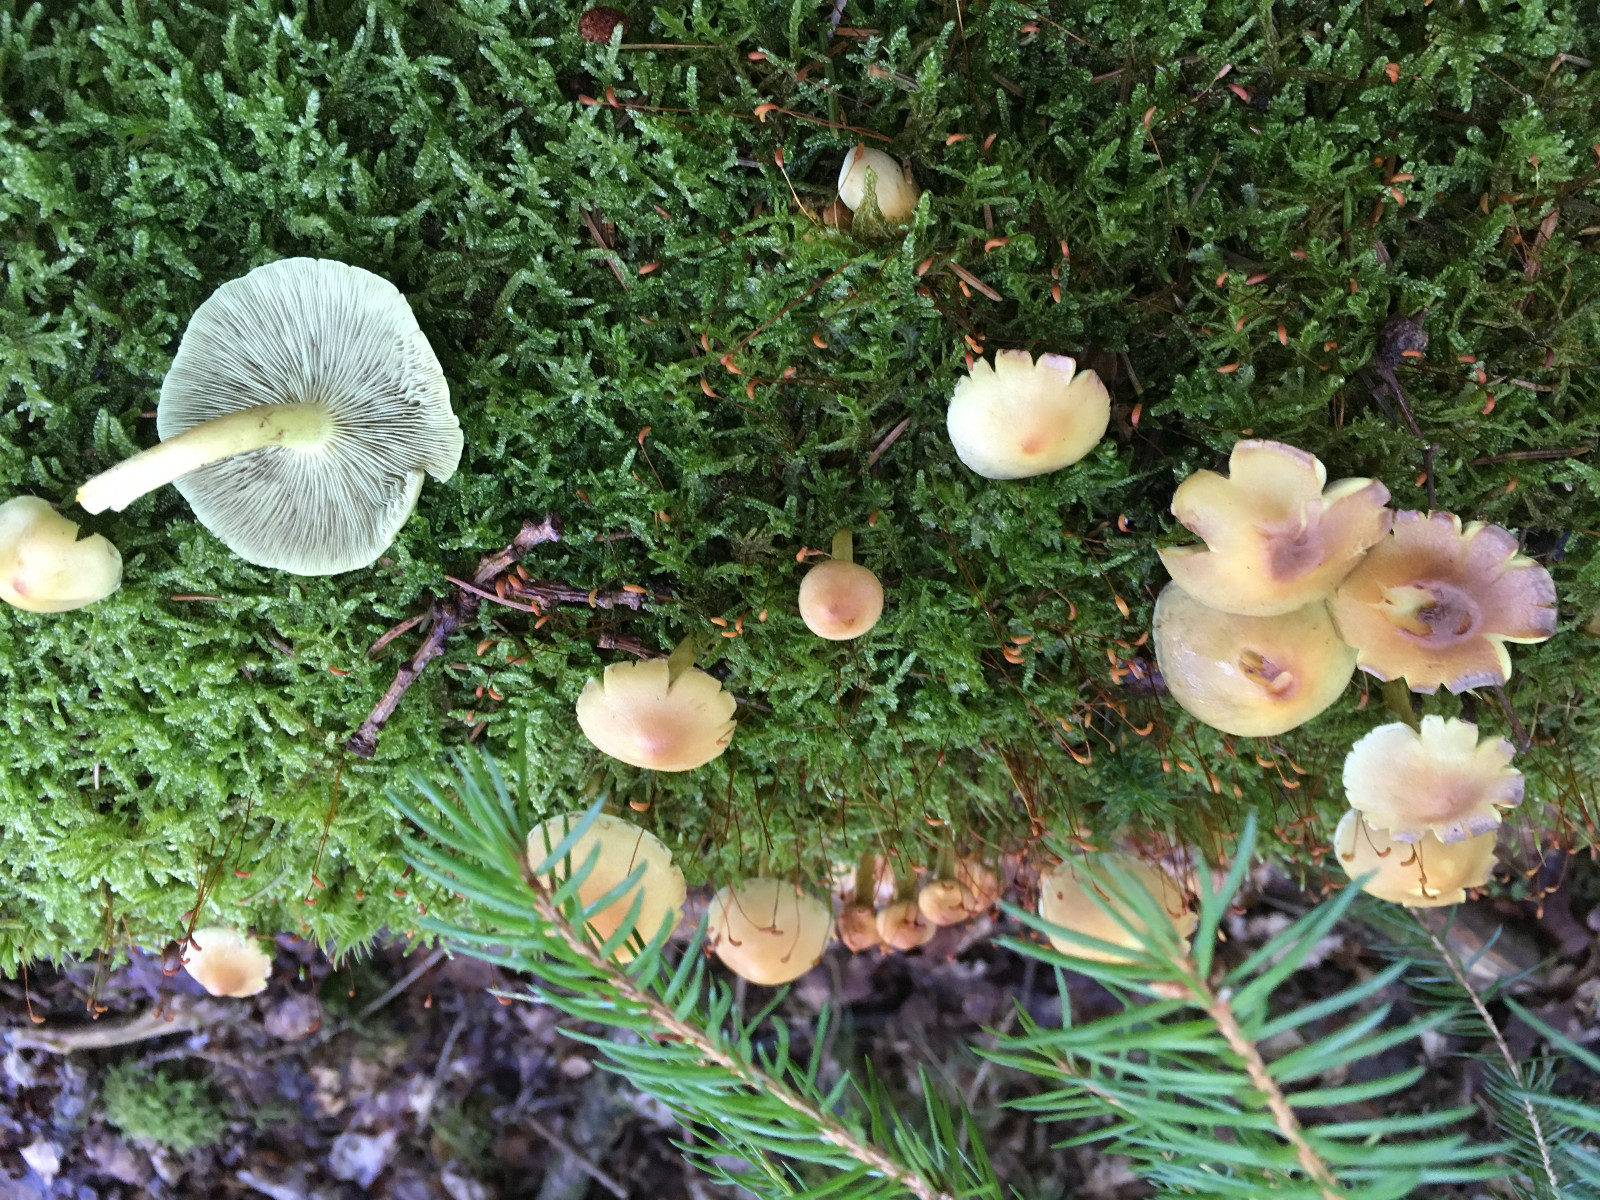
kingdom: Fungi
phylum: Basidiomycota
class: Agaricomycetes
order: Agaricales
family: Strophariaceae
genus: Hypholoma
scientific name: Hypholoma fasciculare
